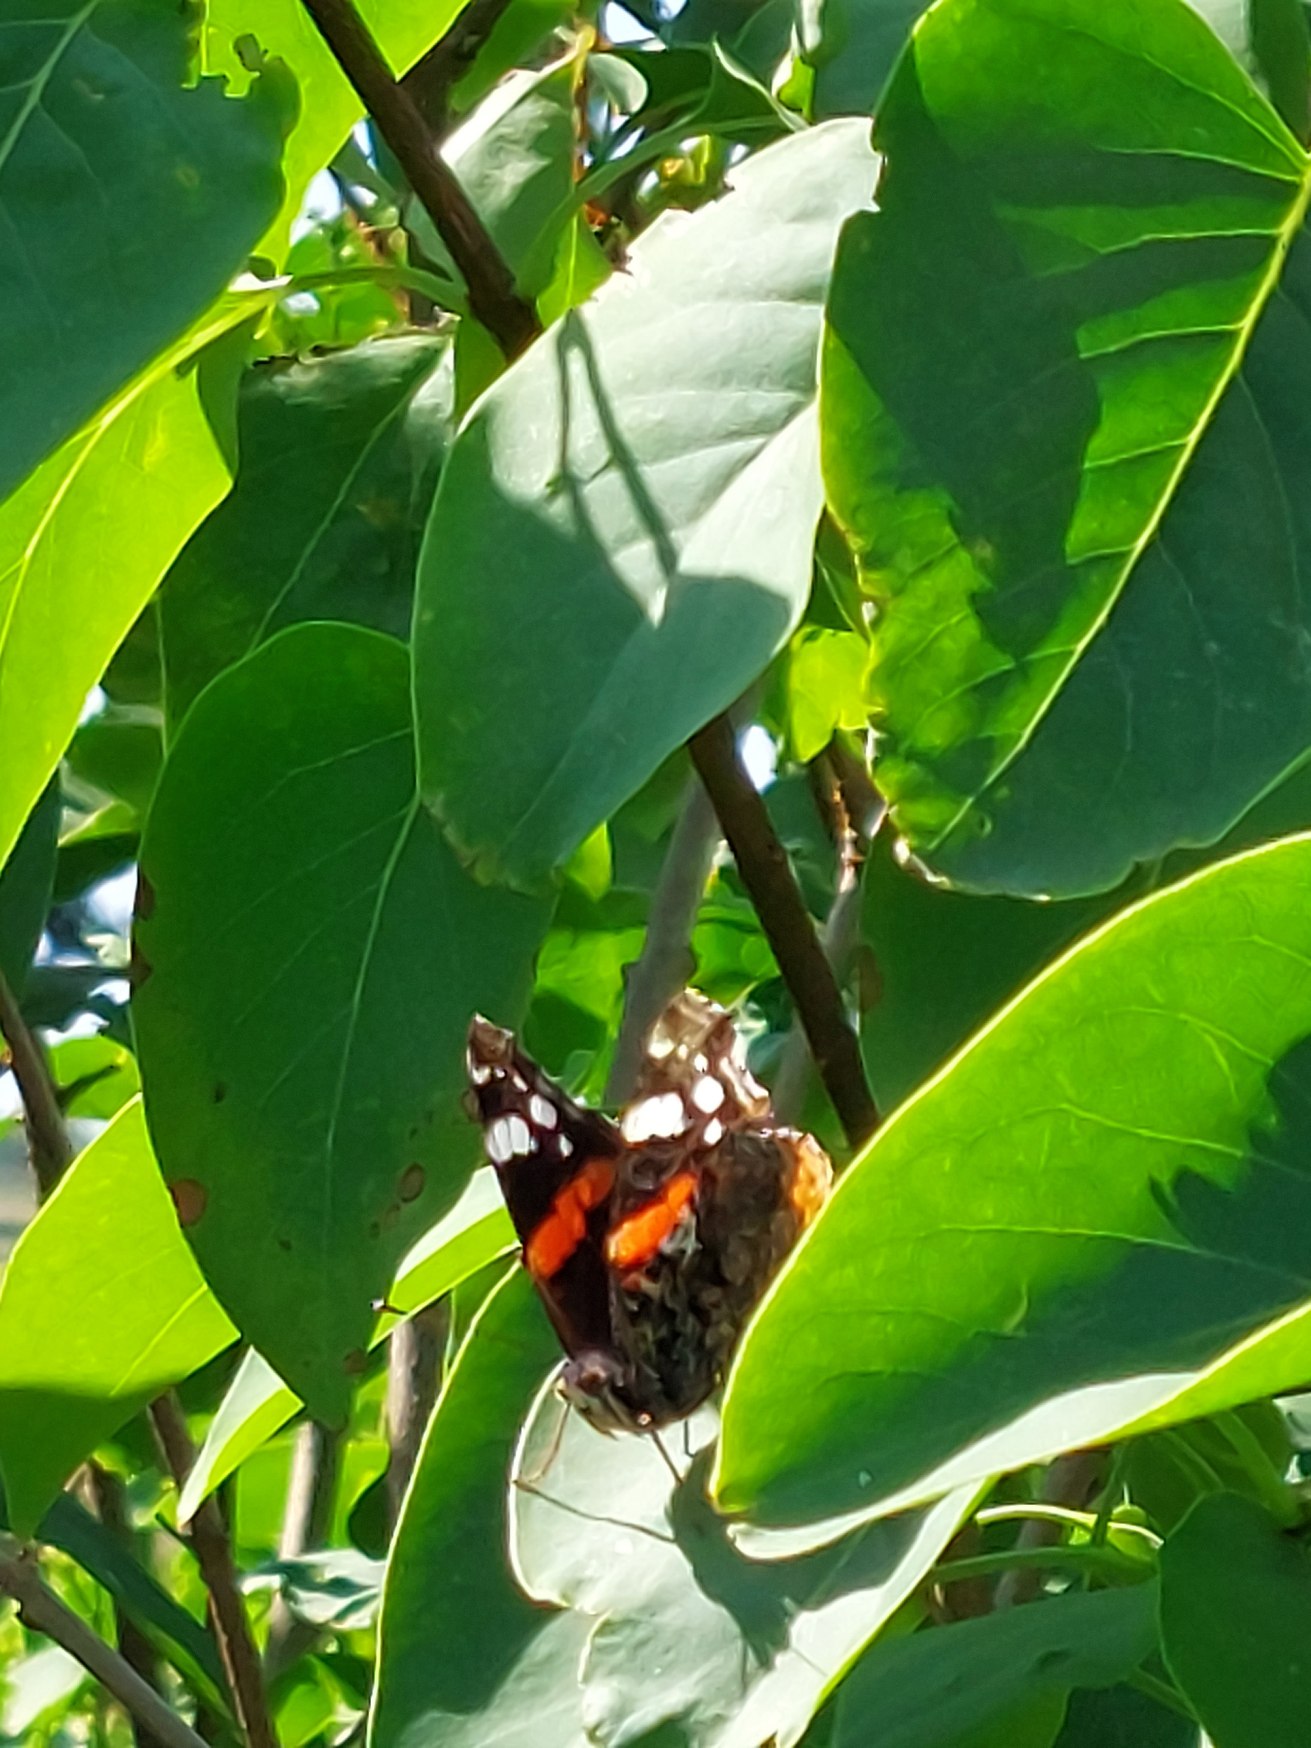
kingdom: Animalia
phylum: Arthropoda
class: Insecta
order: Lepidoptera
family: Nymphalidae
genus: Vanessa
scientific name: Vanessa atalanta
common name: Admiral
